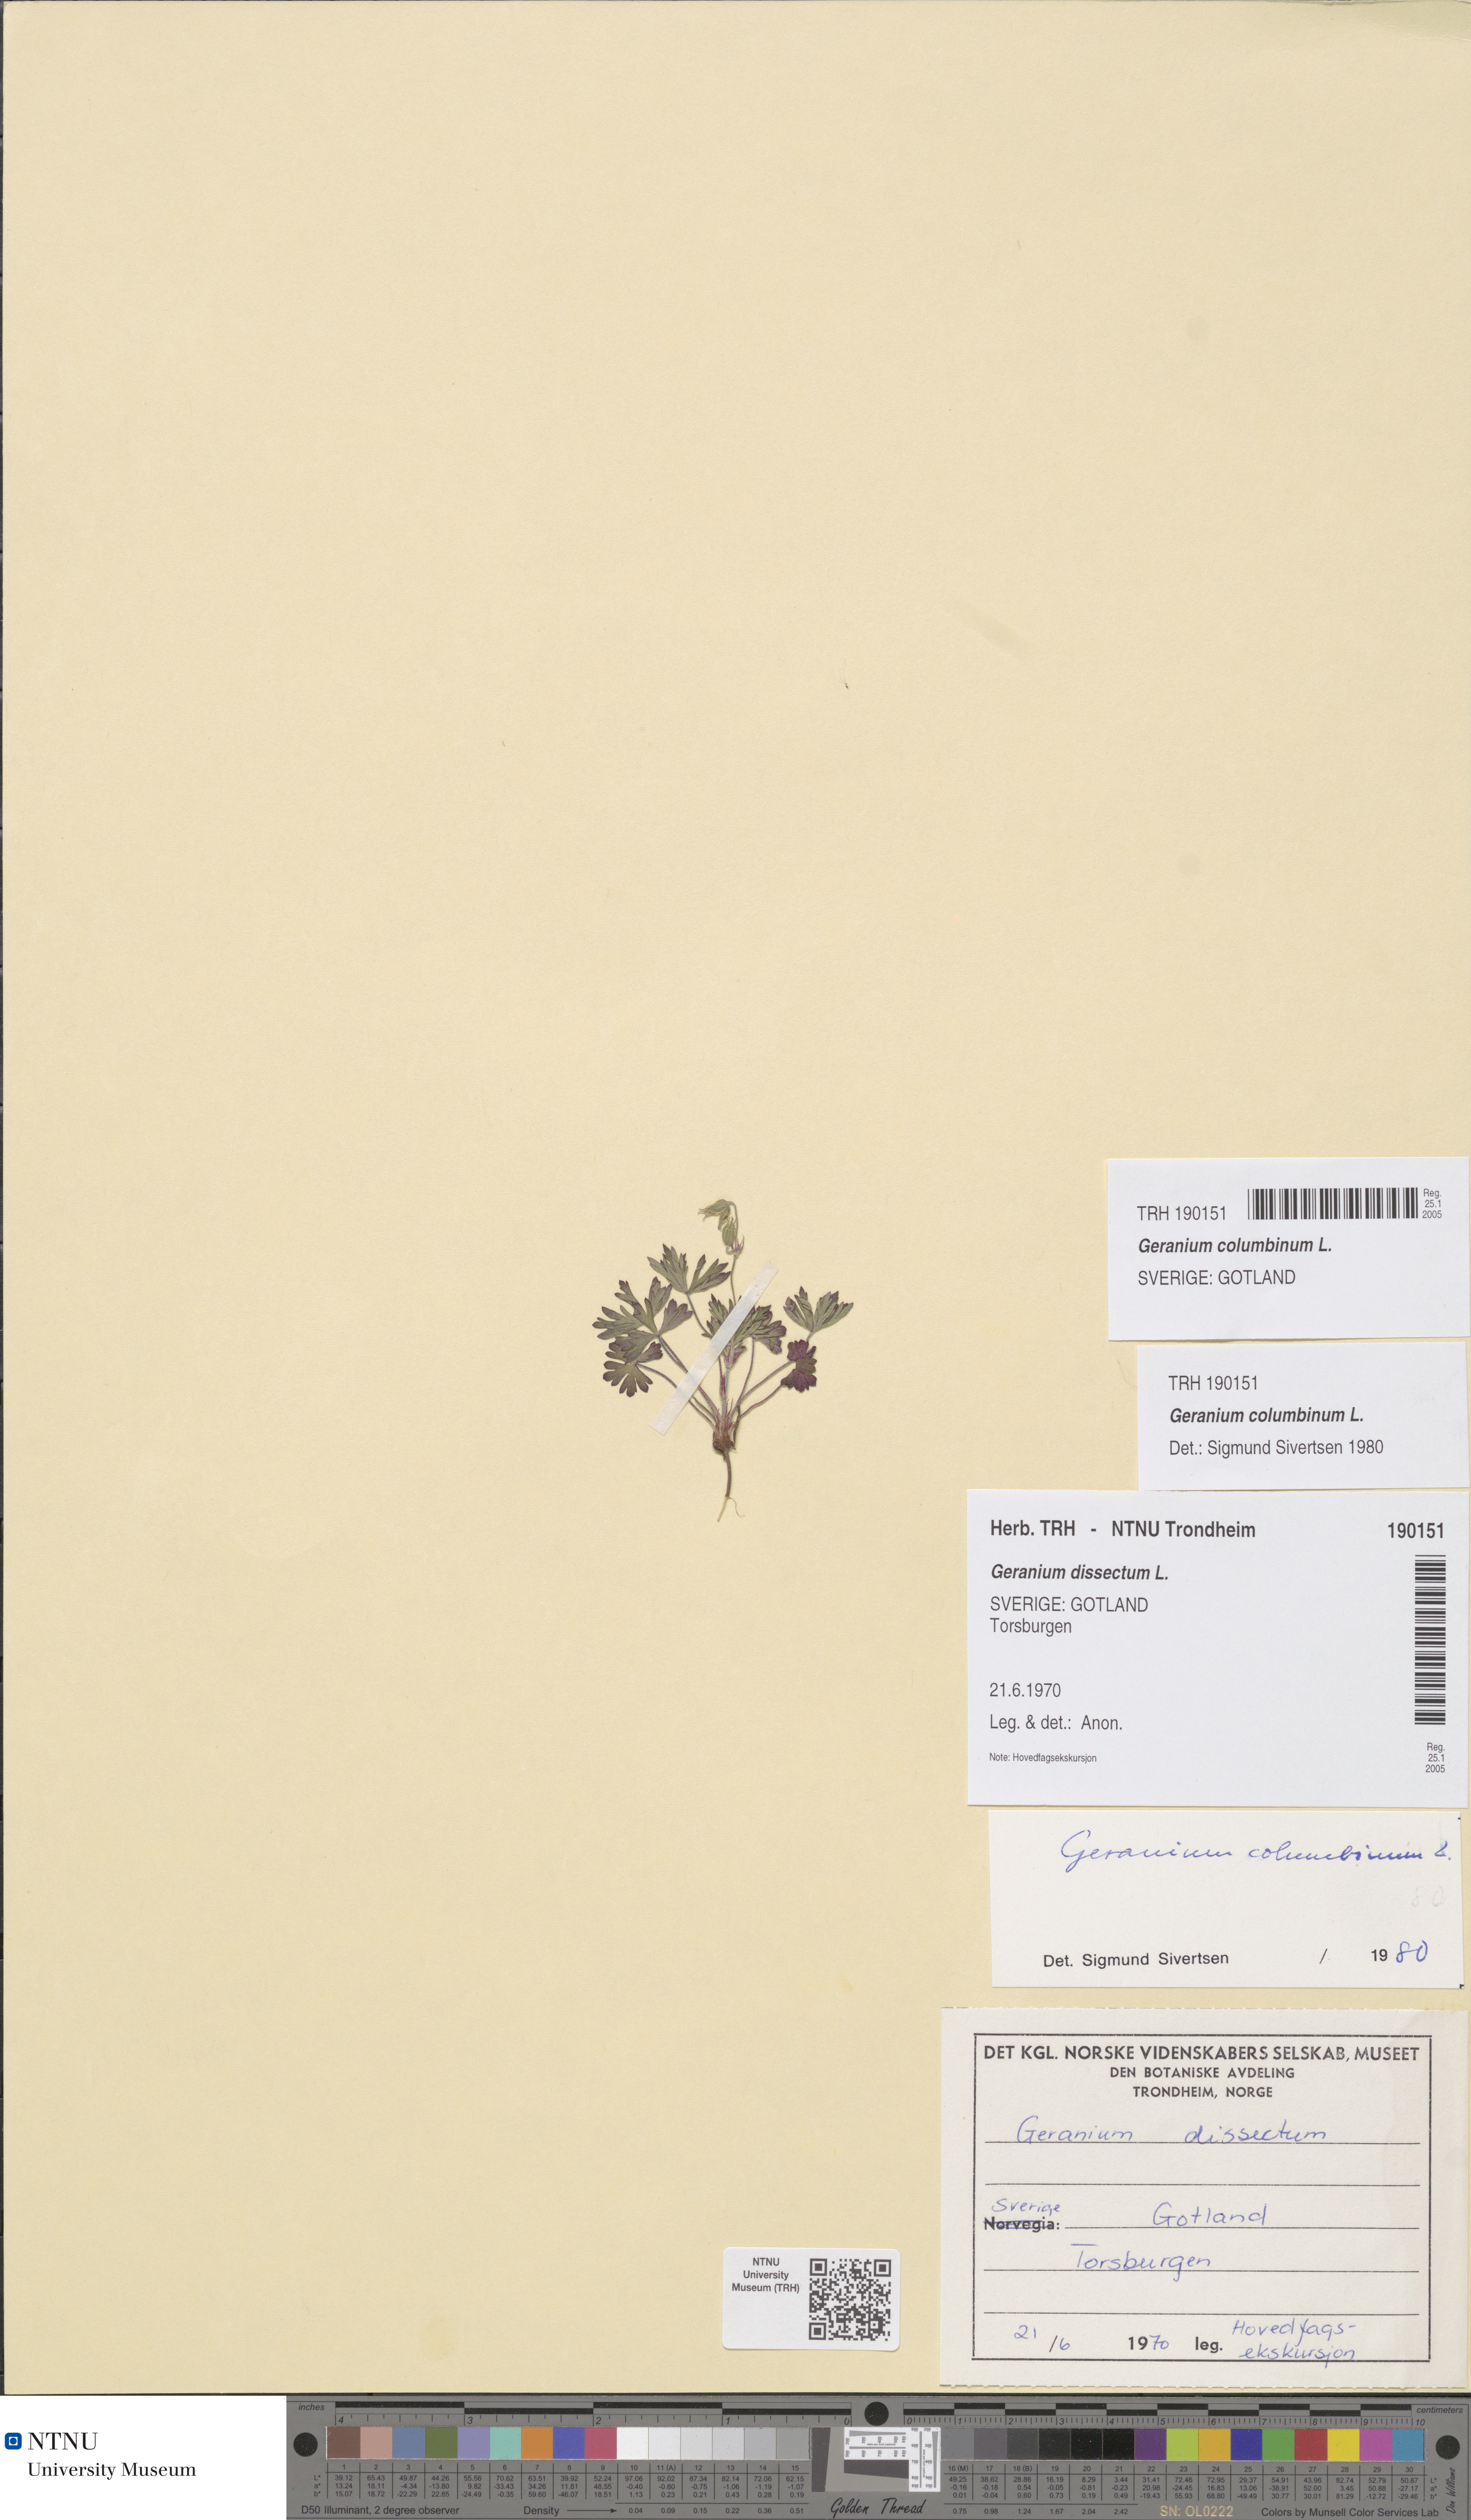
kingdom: Plantae
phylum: Tracheophyta
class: Magnoliopsida
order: Geraniales
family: Geraniaceae
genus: Geranium
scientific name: Geranium columbinum
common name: Long-stalked crane's-bill
